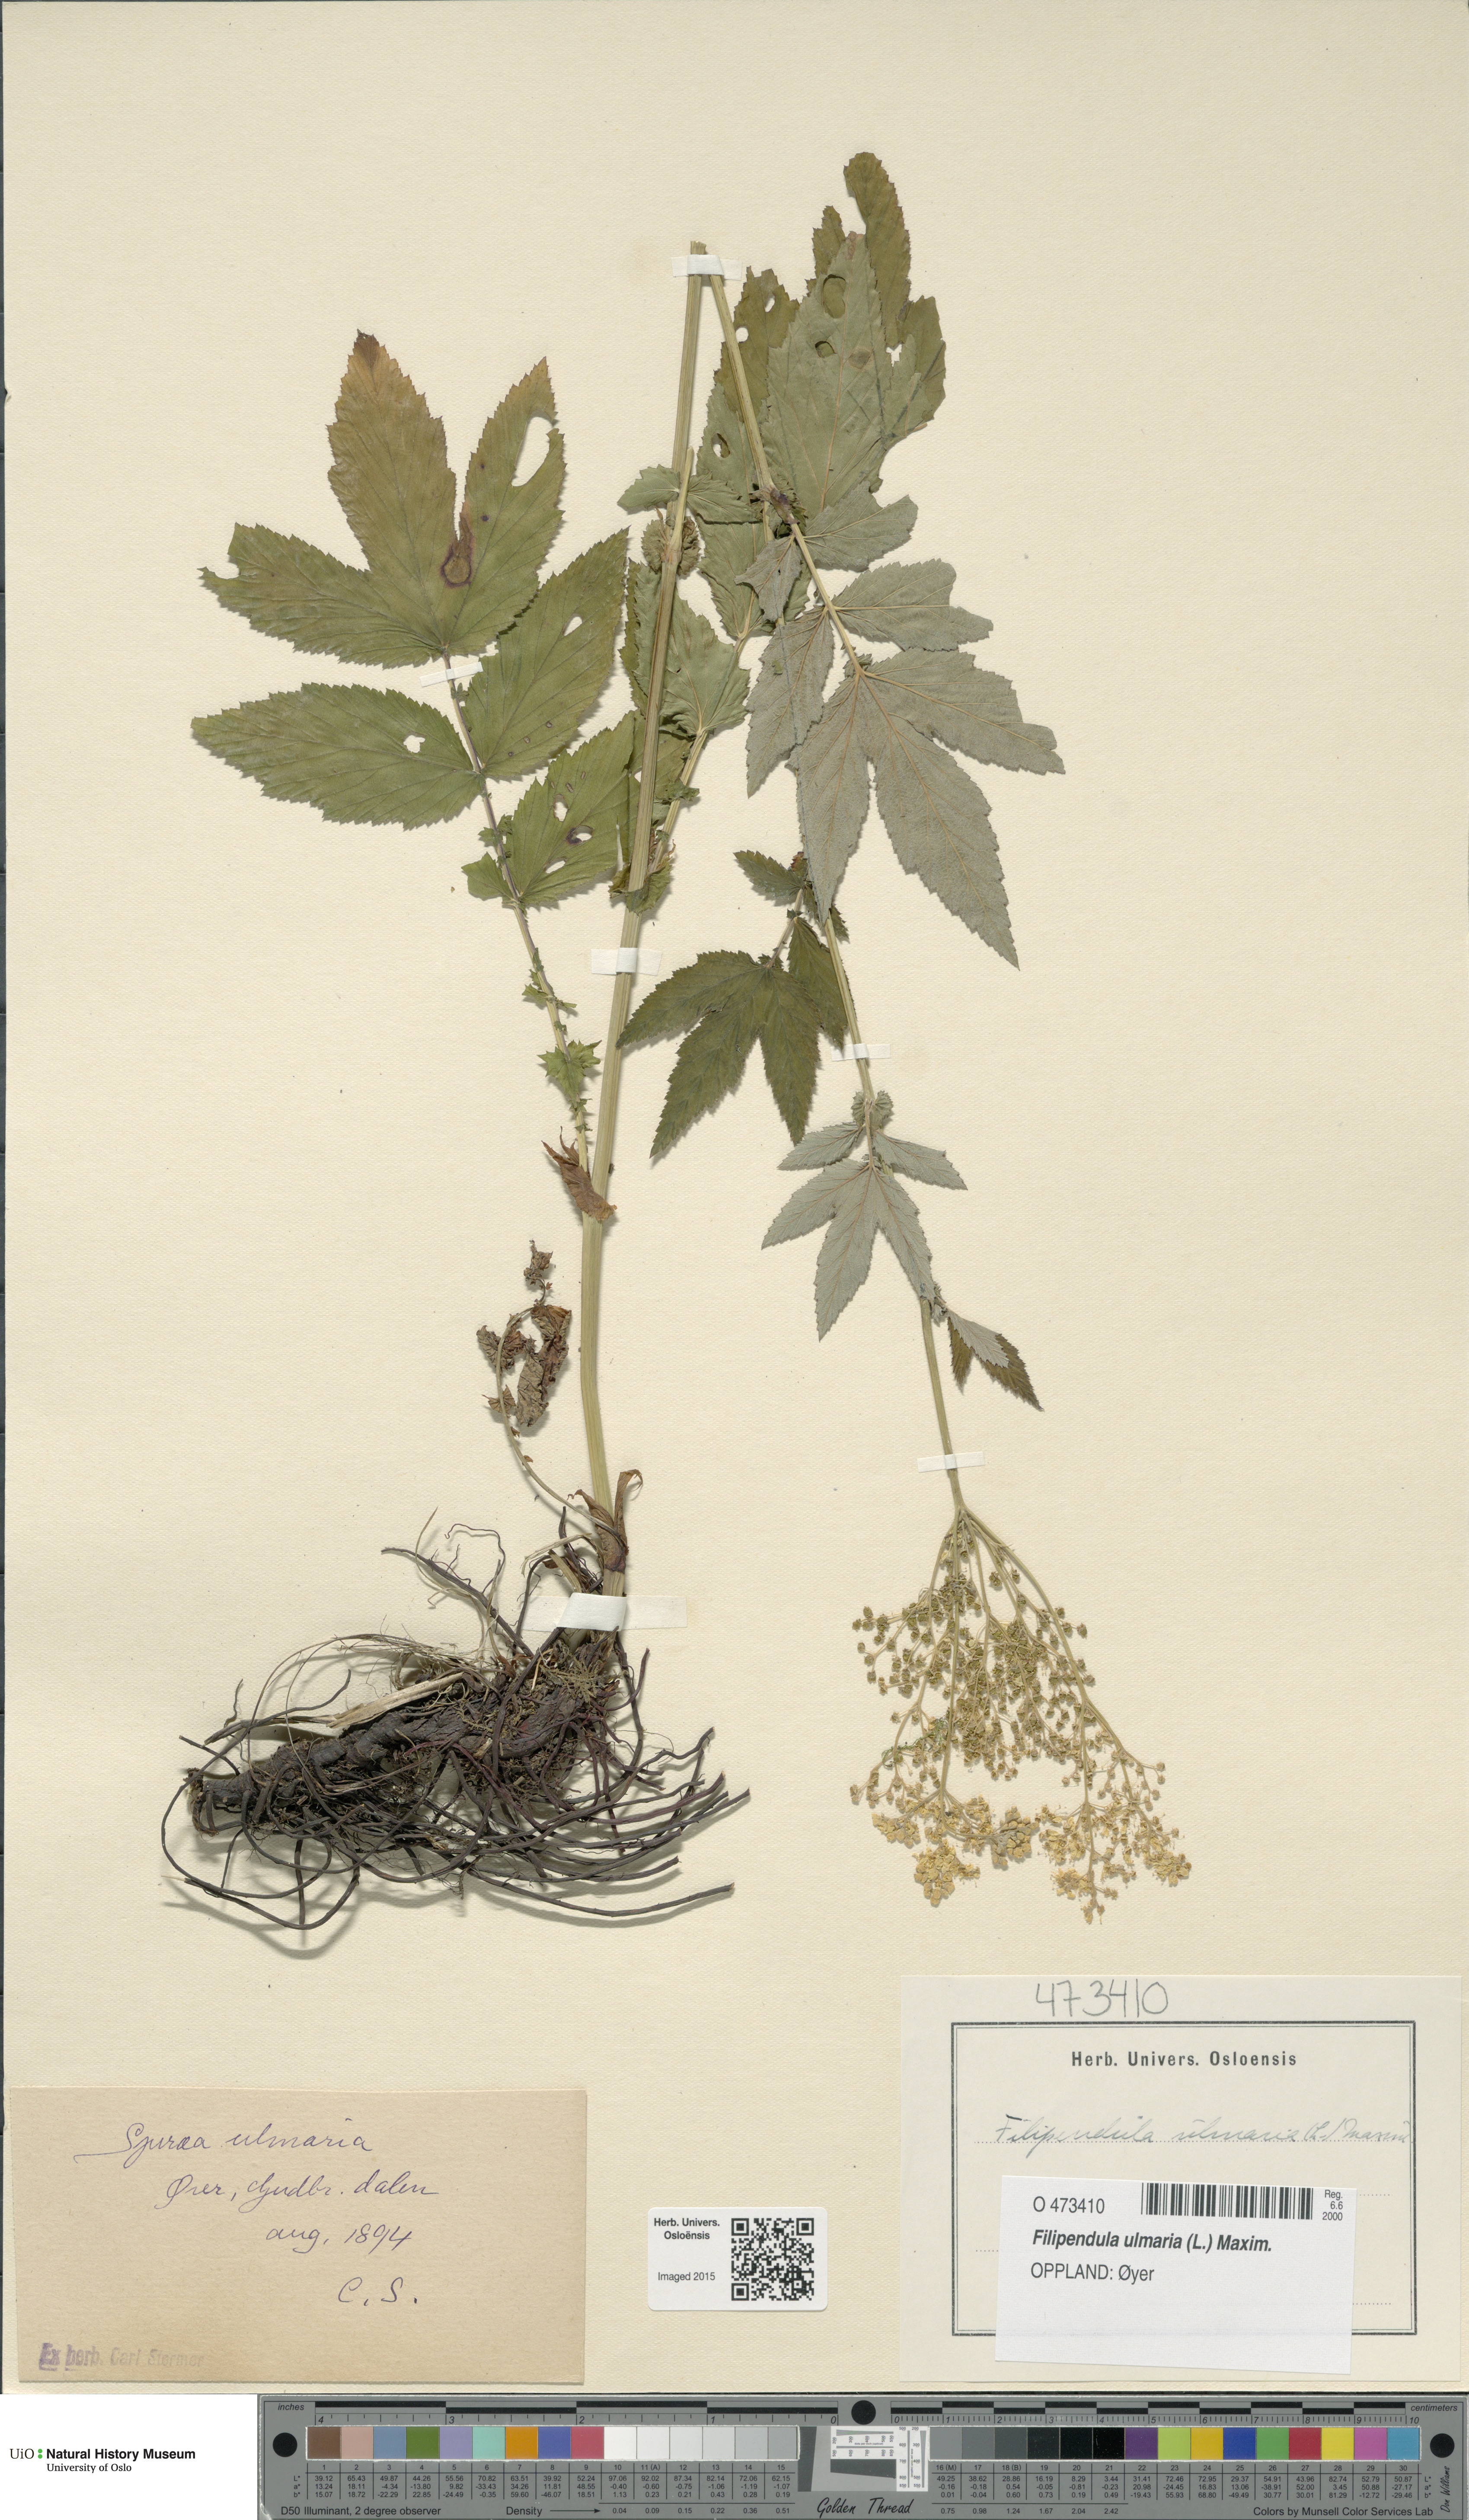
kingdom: Plantae
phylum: Tracheophyta
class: Magnoliopsida
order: Rosales
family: Rosaceae
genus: Filipendula
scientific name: Filipendula ulmaria
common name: Meadowsweet
